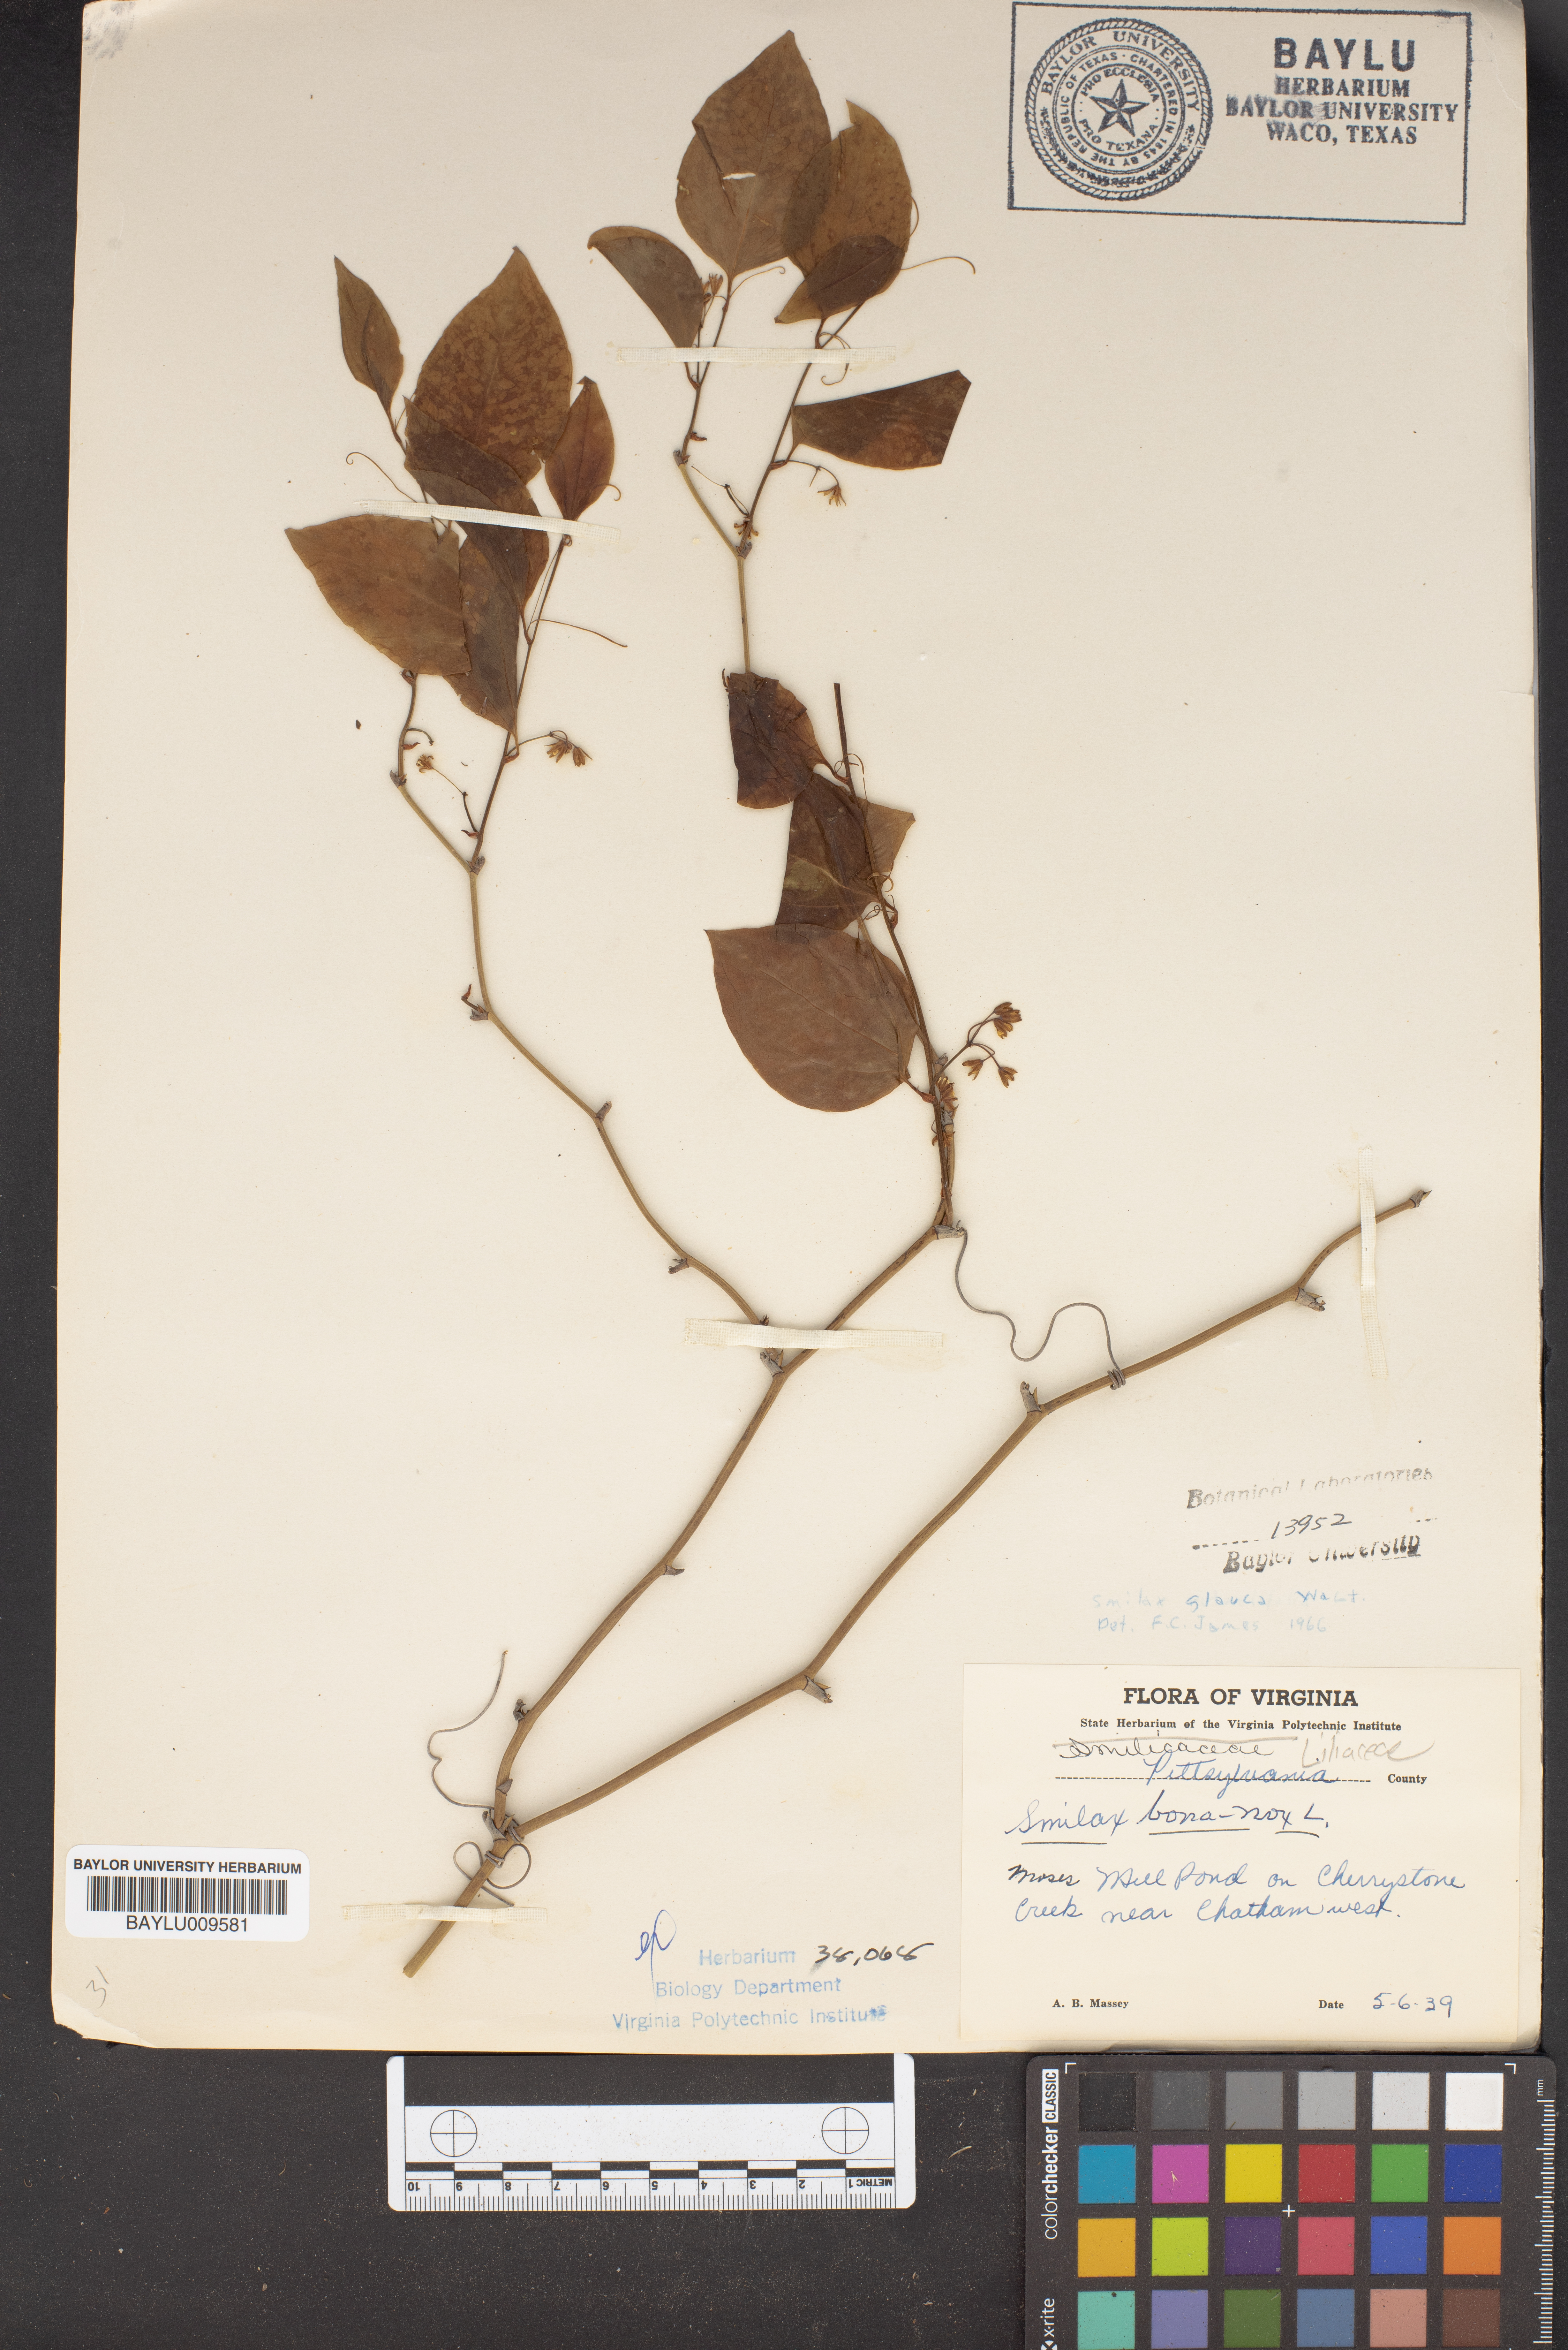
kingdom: Plantae
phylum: Tracheophyta
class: Liliopsida
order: Liliales
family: Smilacaceae
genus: Smilax
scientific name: Smilax bona-nox
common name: Catbrier
